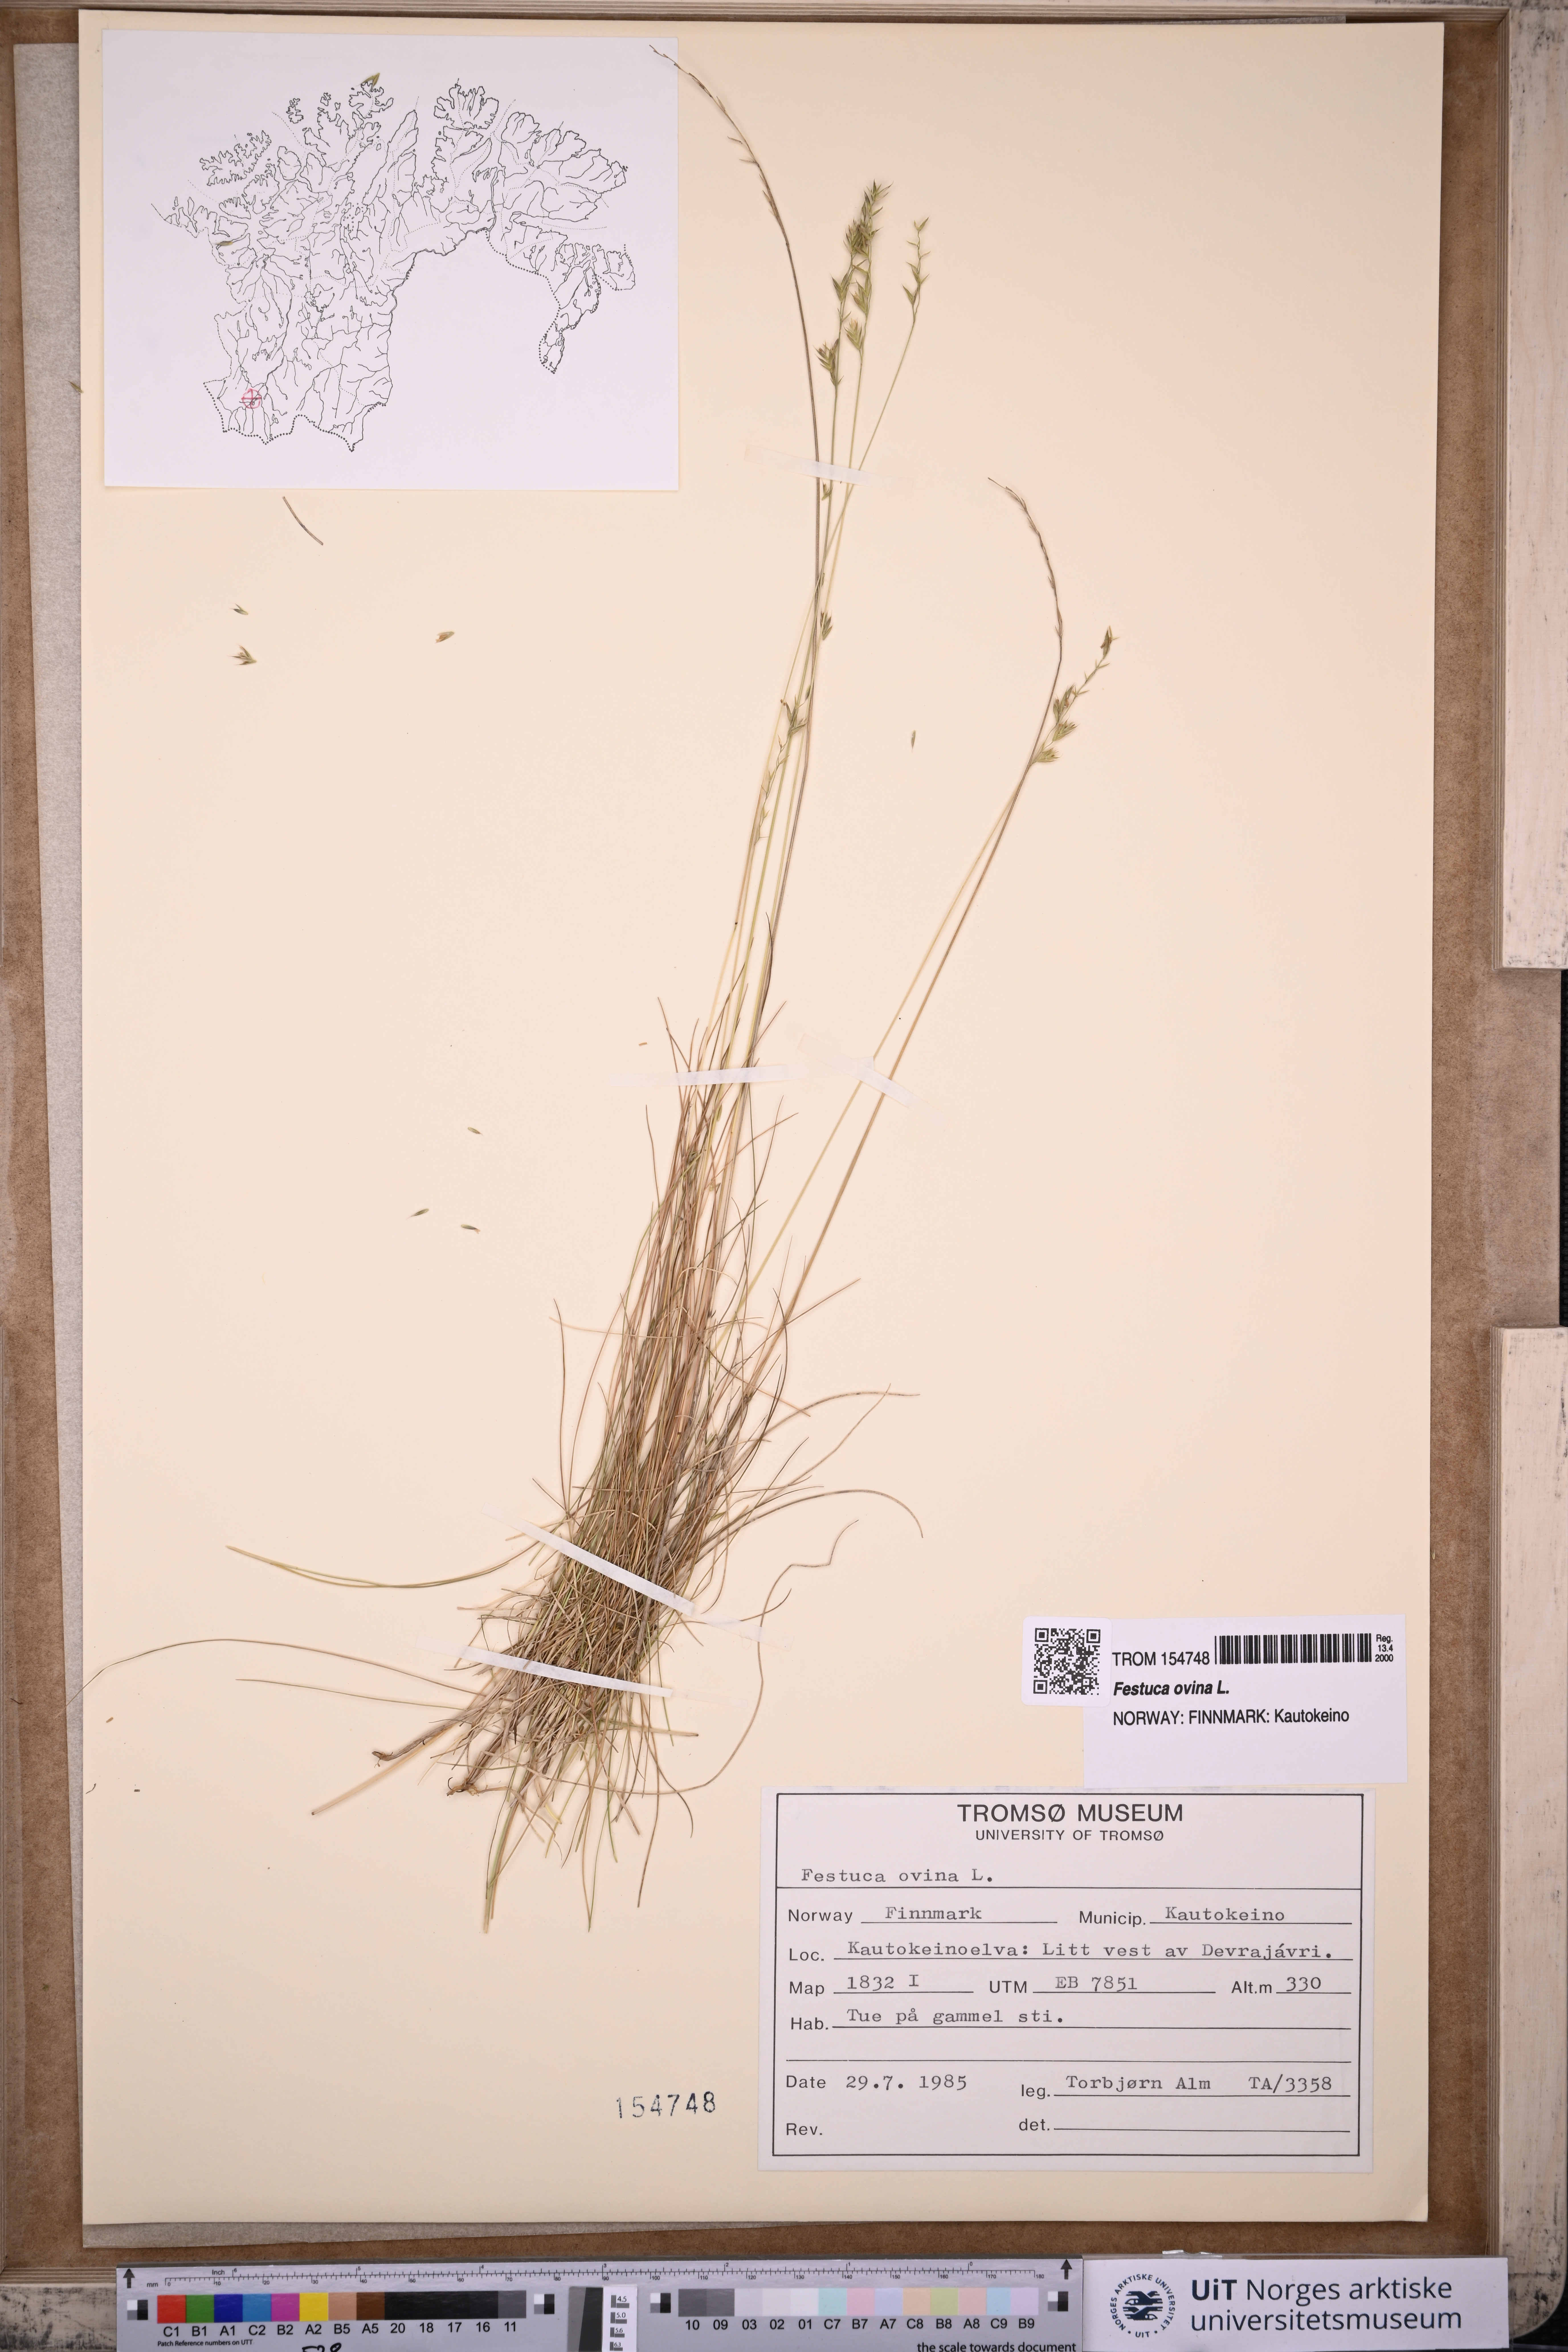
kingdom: Plantae
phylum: Tracheophyta
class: Liliopsida
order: Poales
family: Poaceae
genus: Festuca
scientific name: Festuca ovina
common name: Sheep fescue
